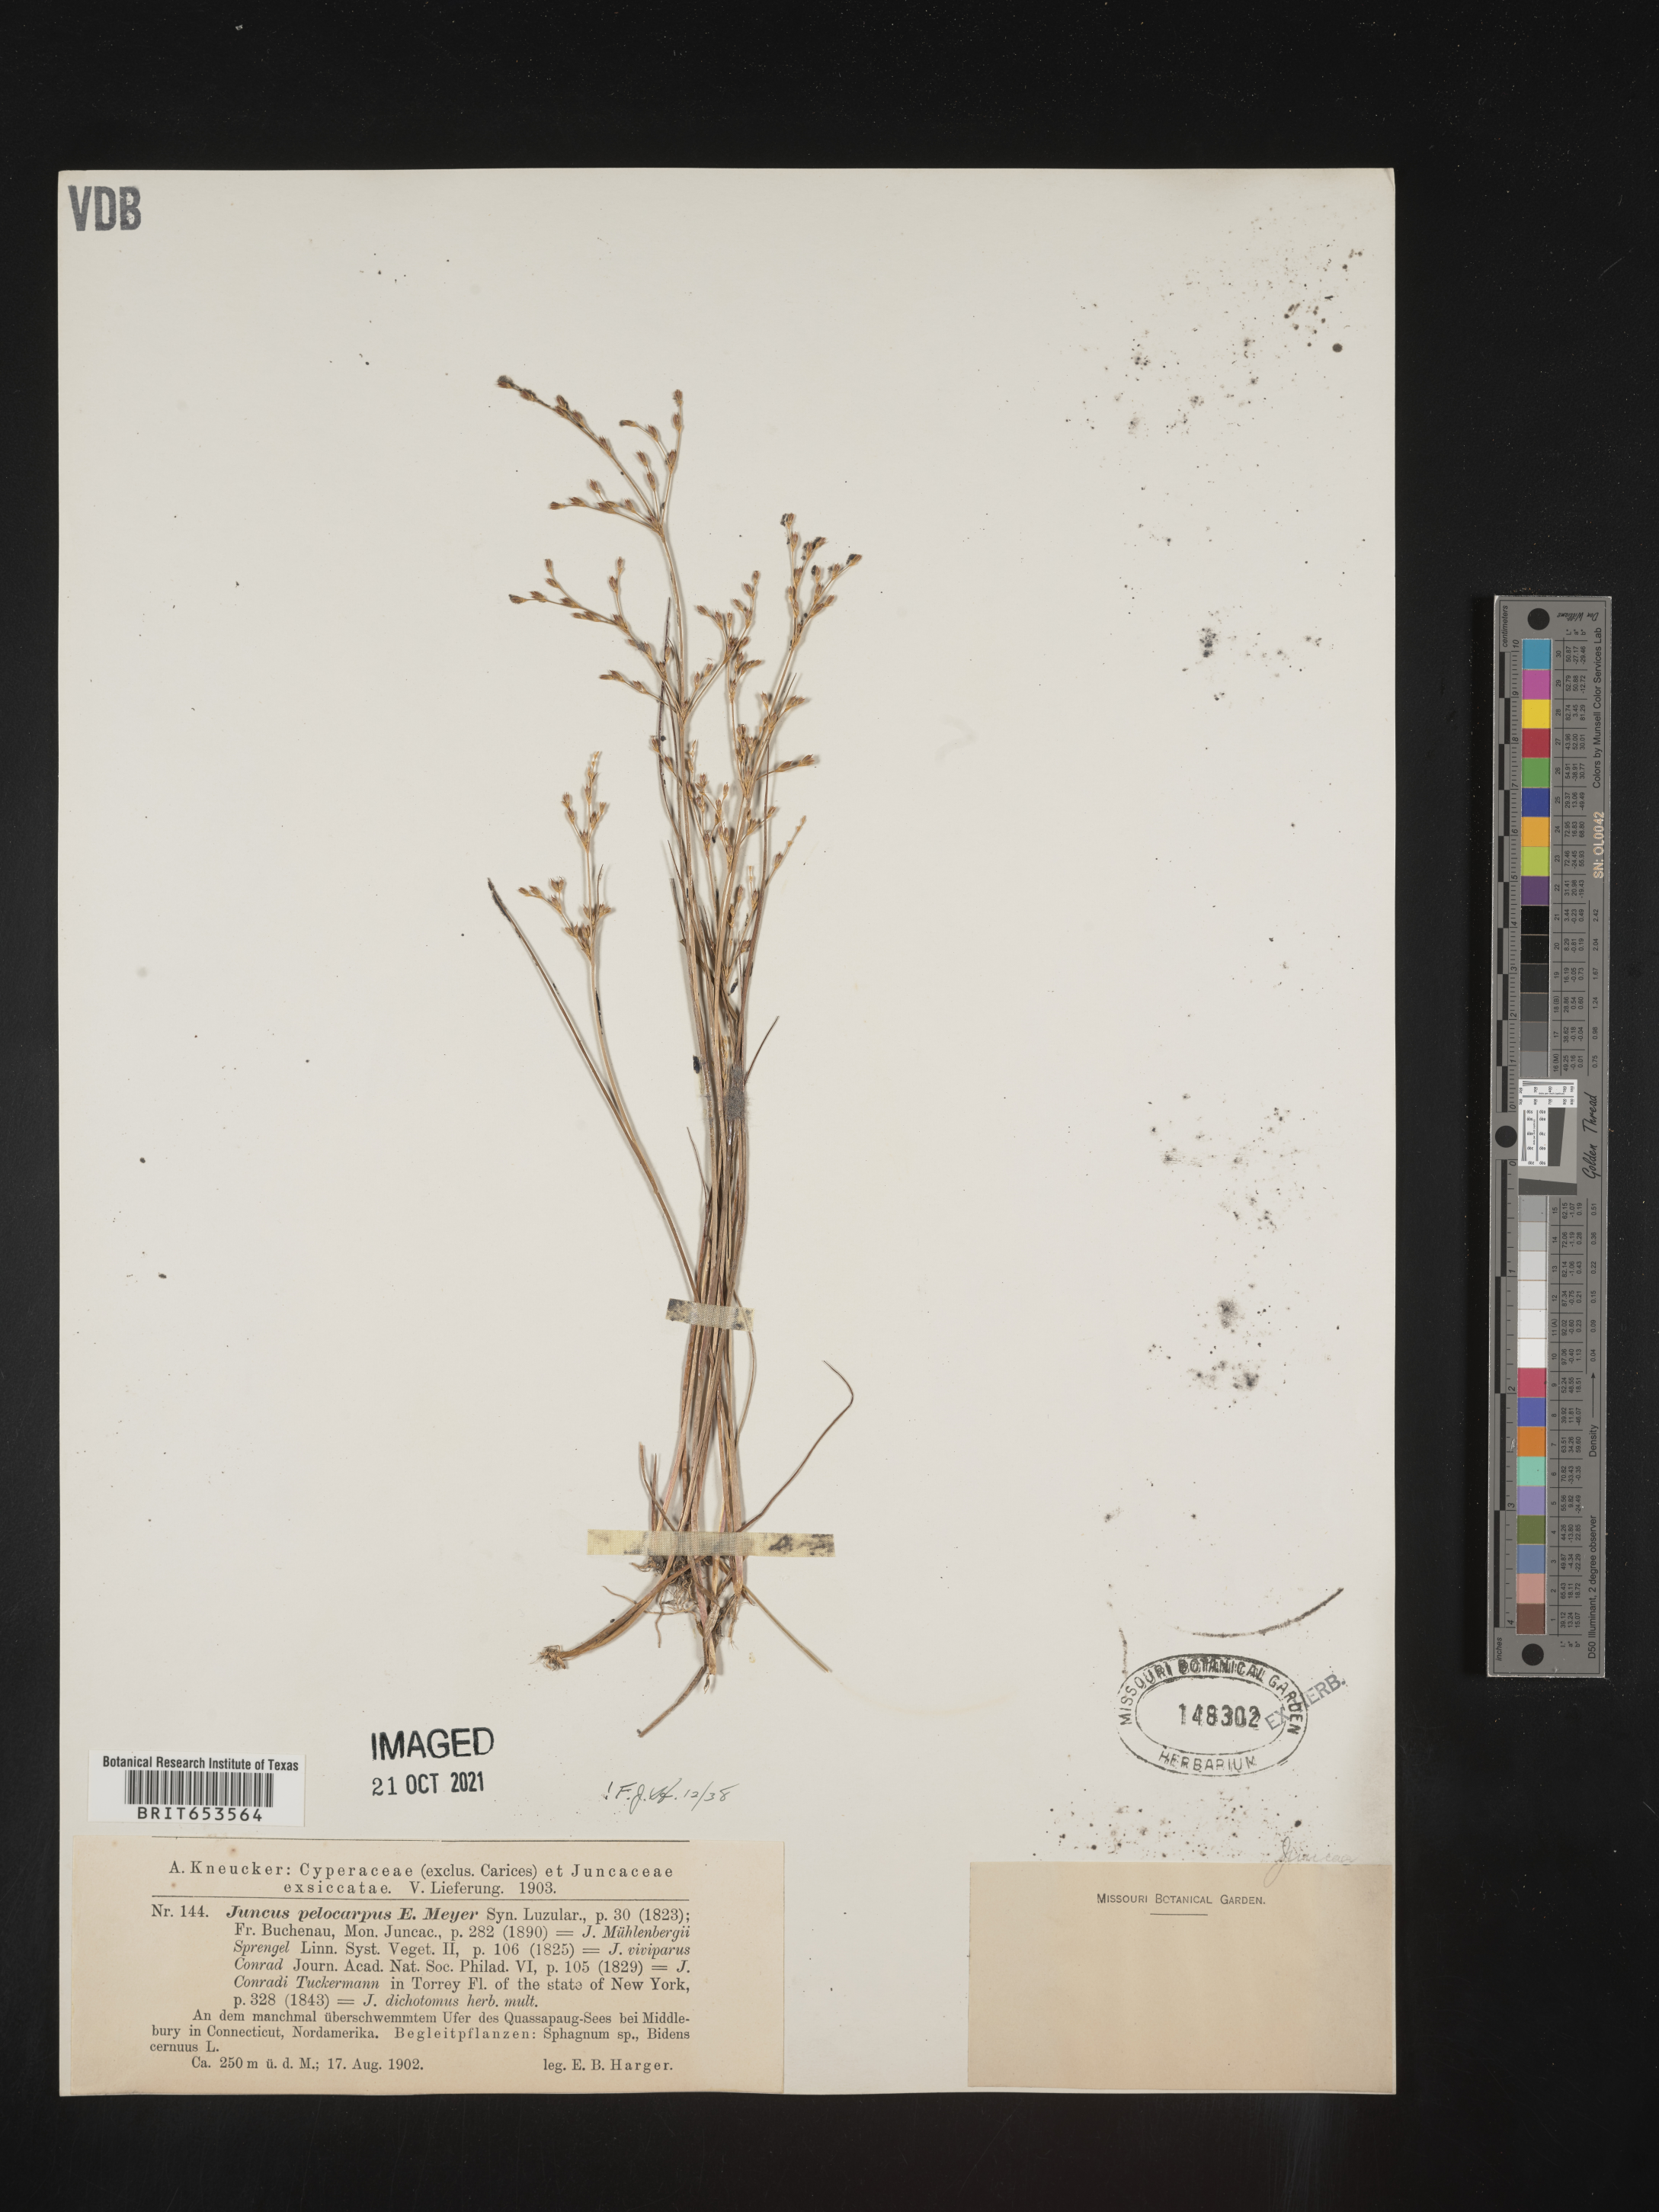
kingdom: Plantae
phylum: Tracheophyta
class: Liliopsida
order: Poales
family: Juncaceae
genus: Juncus
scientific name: Juncus pelocarpus
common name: Brown-fruited rush
